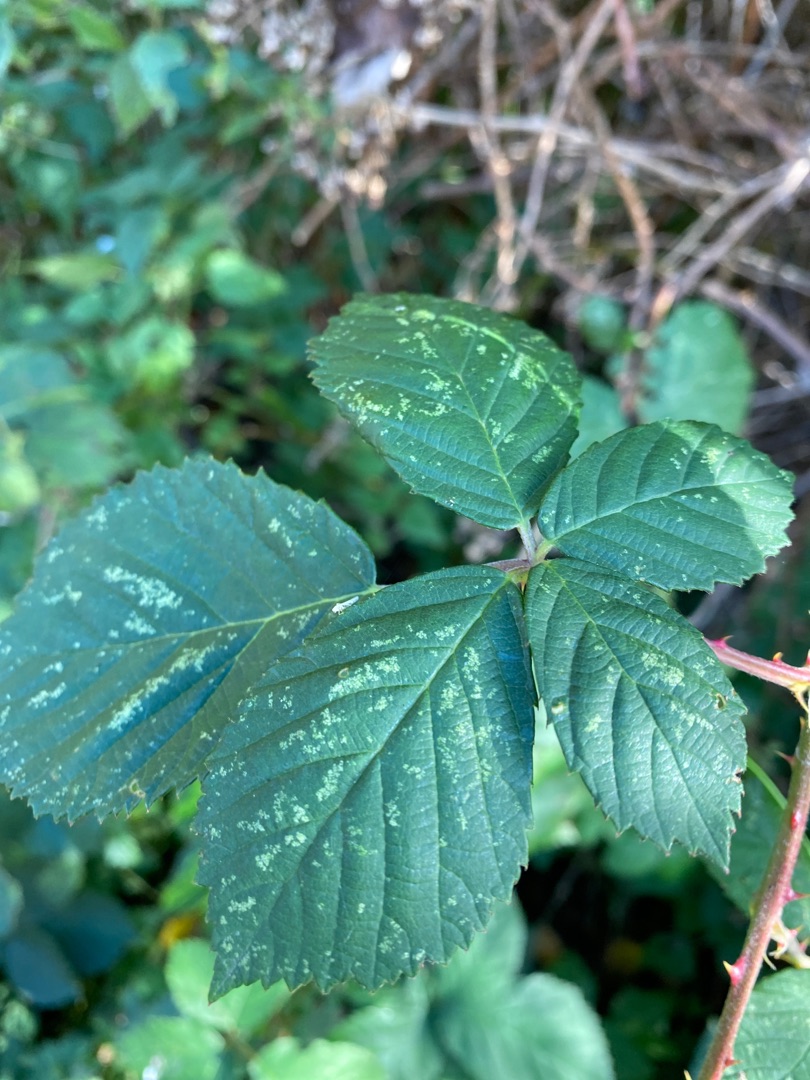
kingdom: Plantae
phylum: Tracheophyta
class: Magnoliopsida
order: Rosales
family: Rosaceae
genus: Rubus
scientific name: Rubus armeniacus
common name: Armensk brombær
